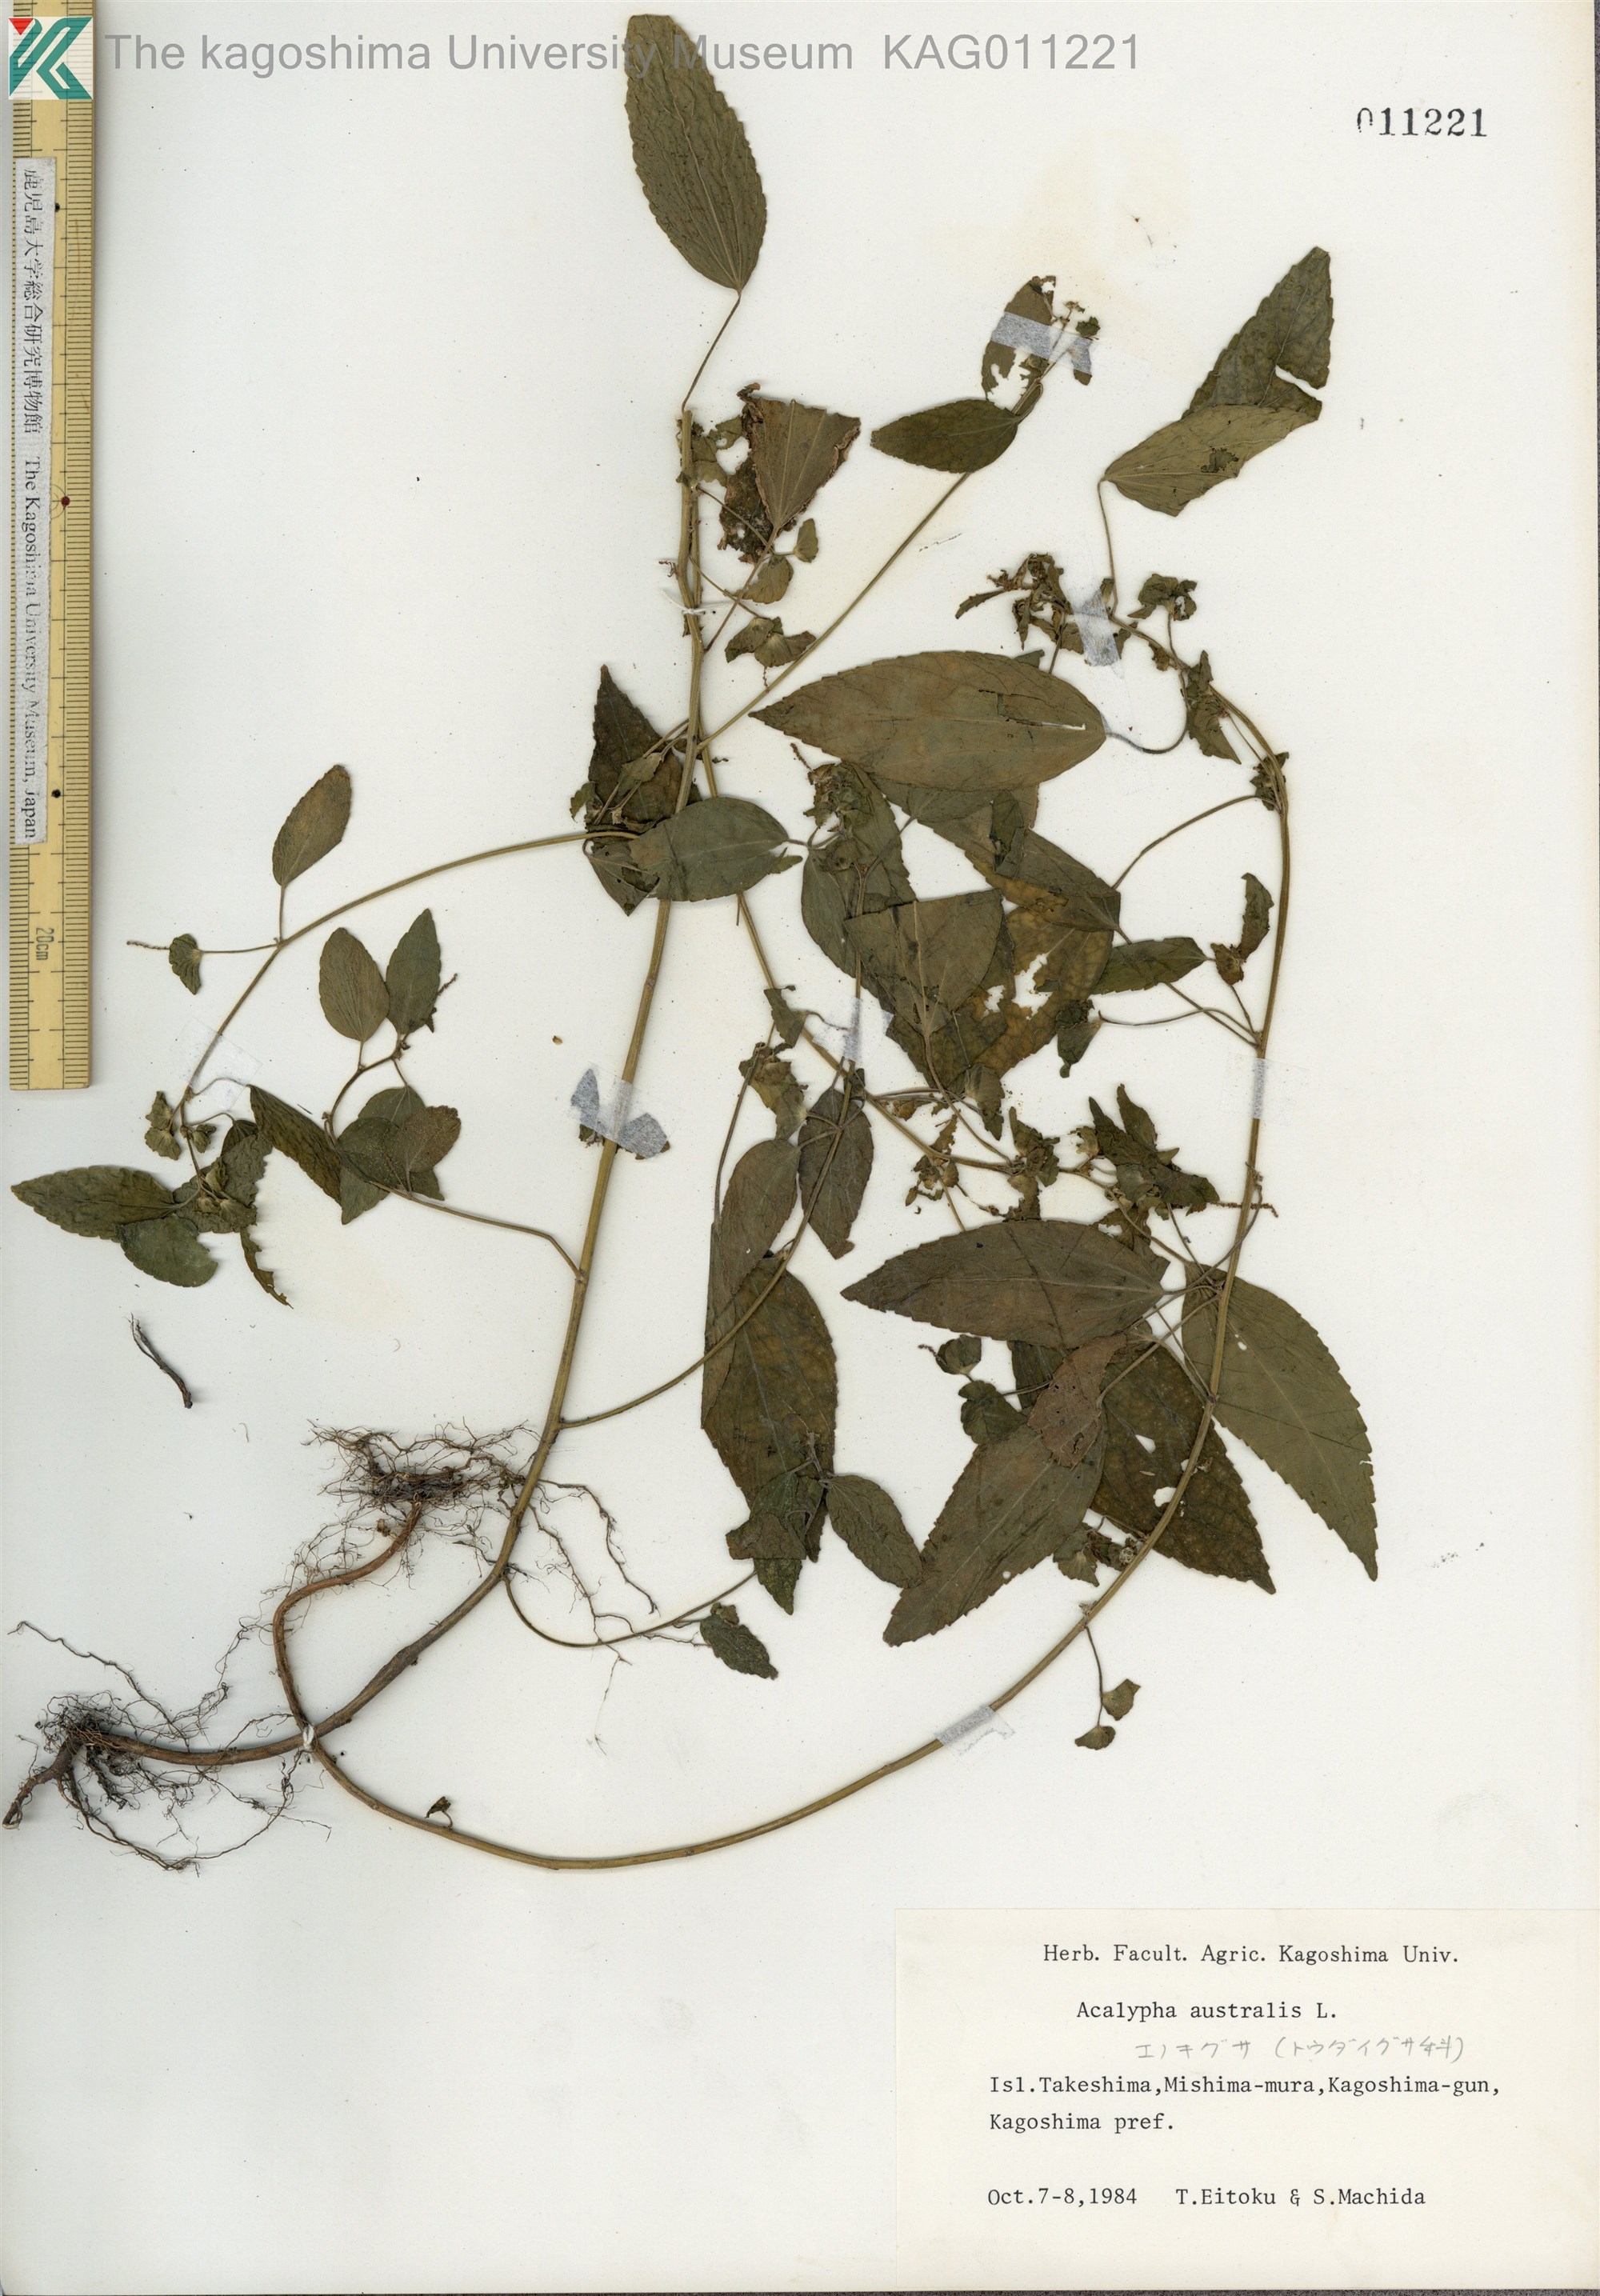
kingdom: Plantae
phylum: Tracheophyta
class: Magnoliopsida
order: Malpighiales
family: Euphorbiaceae
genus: Acalypha
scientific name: Acalypha australis
